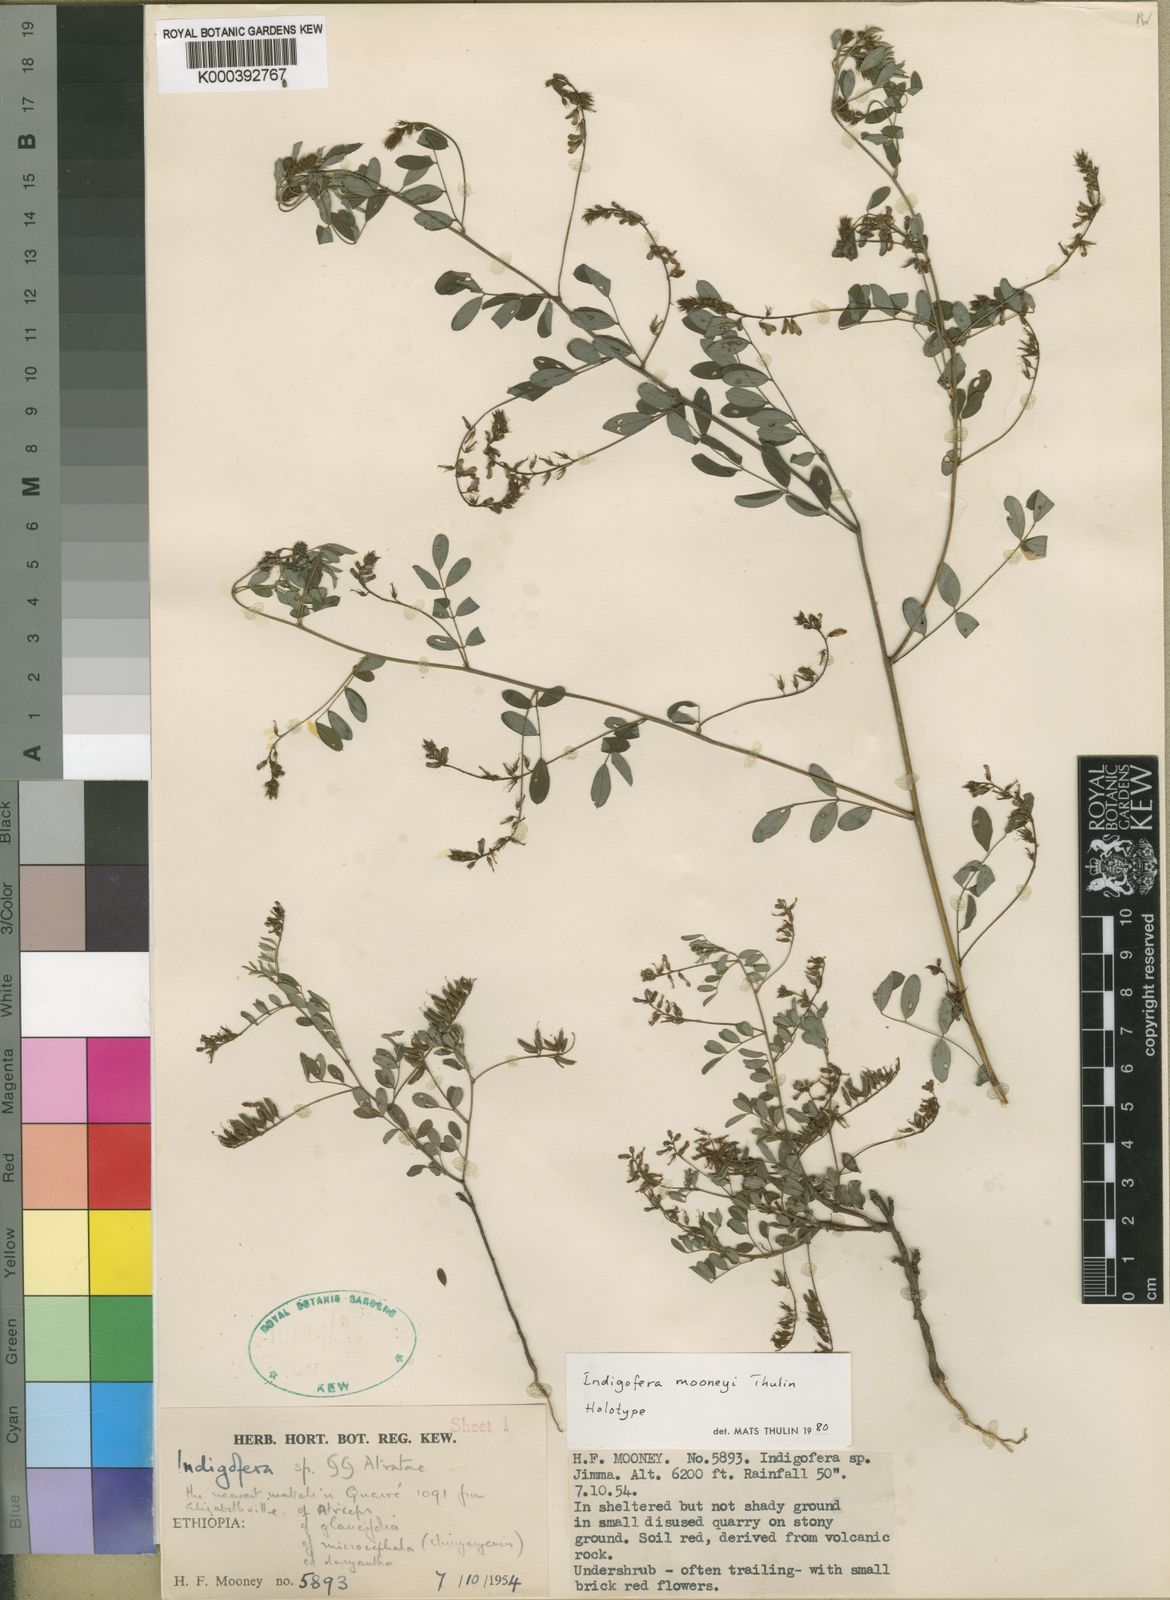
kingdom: Plantae
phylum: Tracheophyta
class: Magnoliopsida
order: Fabales
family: Fabaceae
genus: Indigofera
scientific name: Indigofera mooneyi
